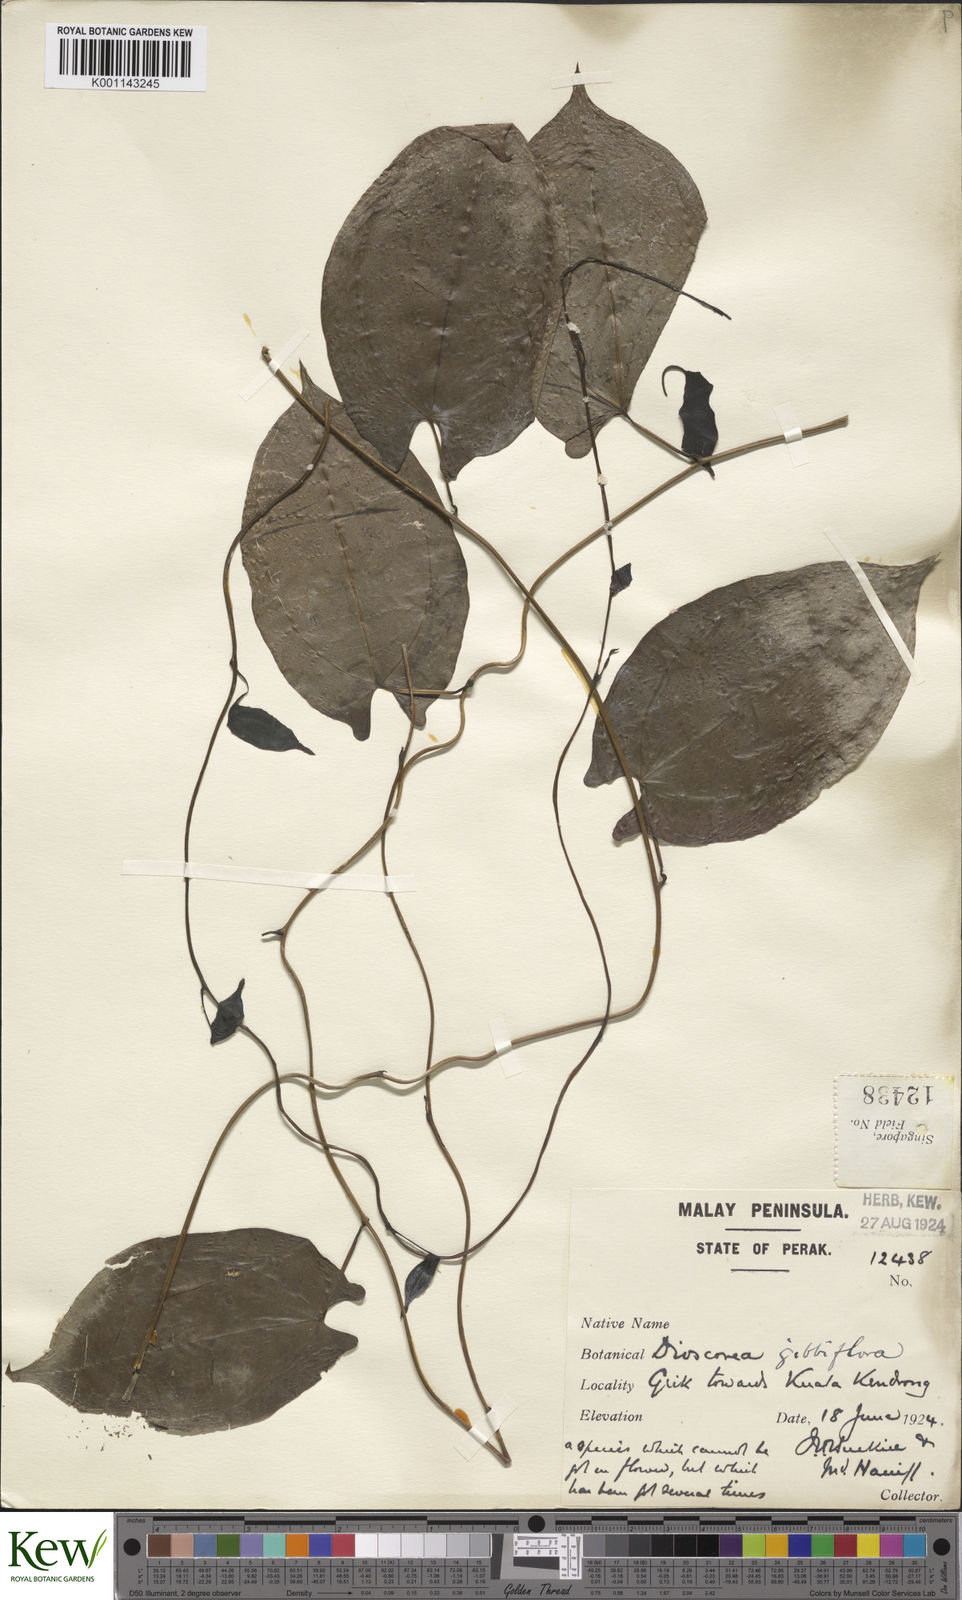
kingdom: Plantae
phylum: Tracheophyta
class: Liliopsida
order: Dioscoreales
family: Dioscoreaceae
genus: Dioscorea
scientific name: Dioscorea filiformis
